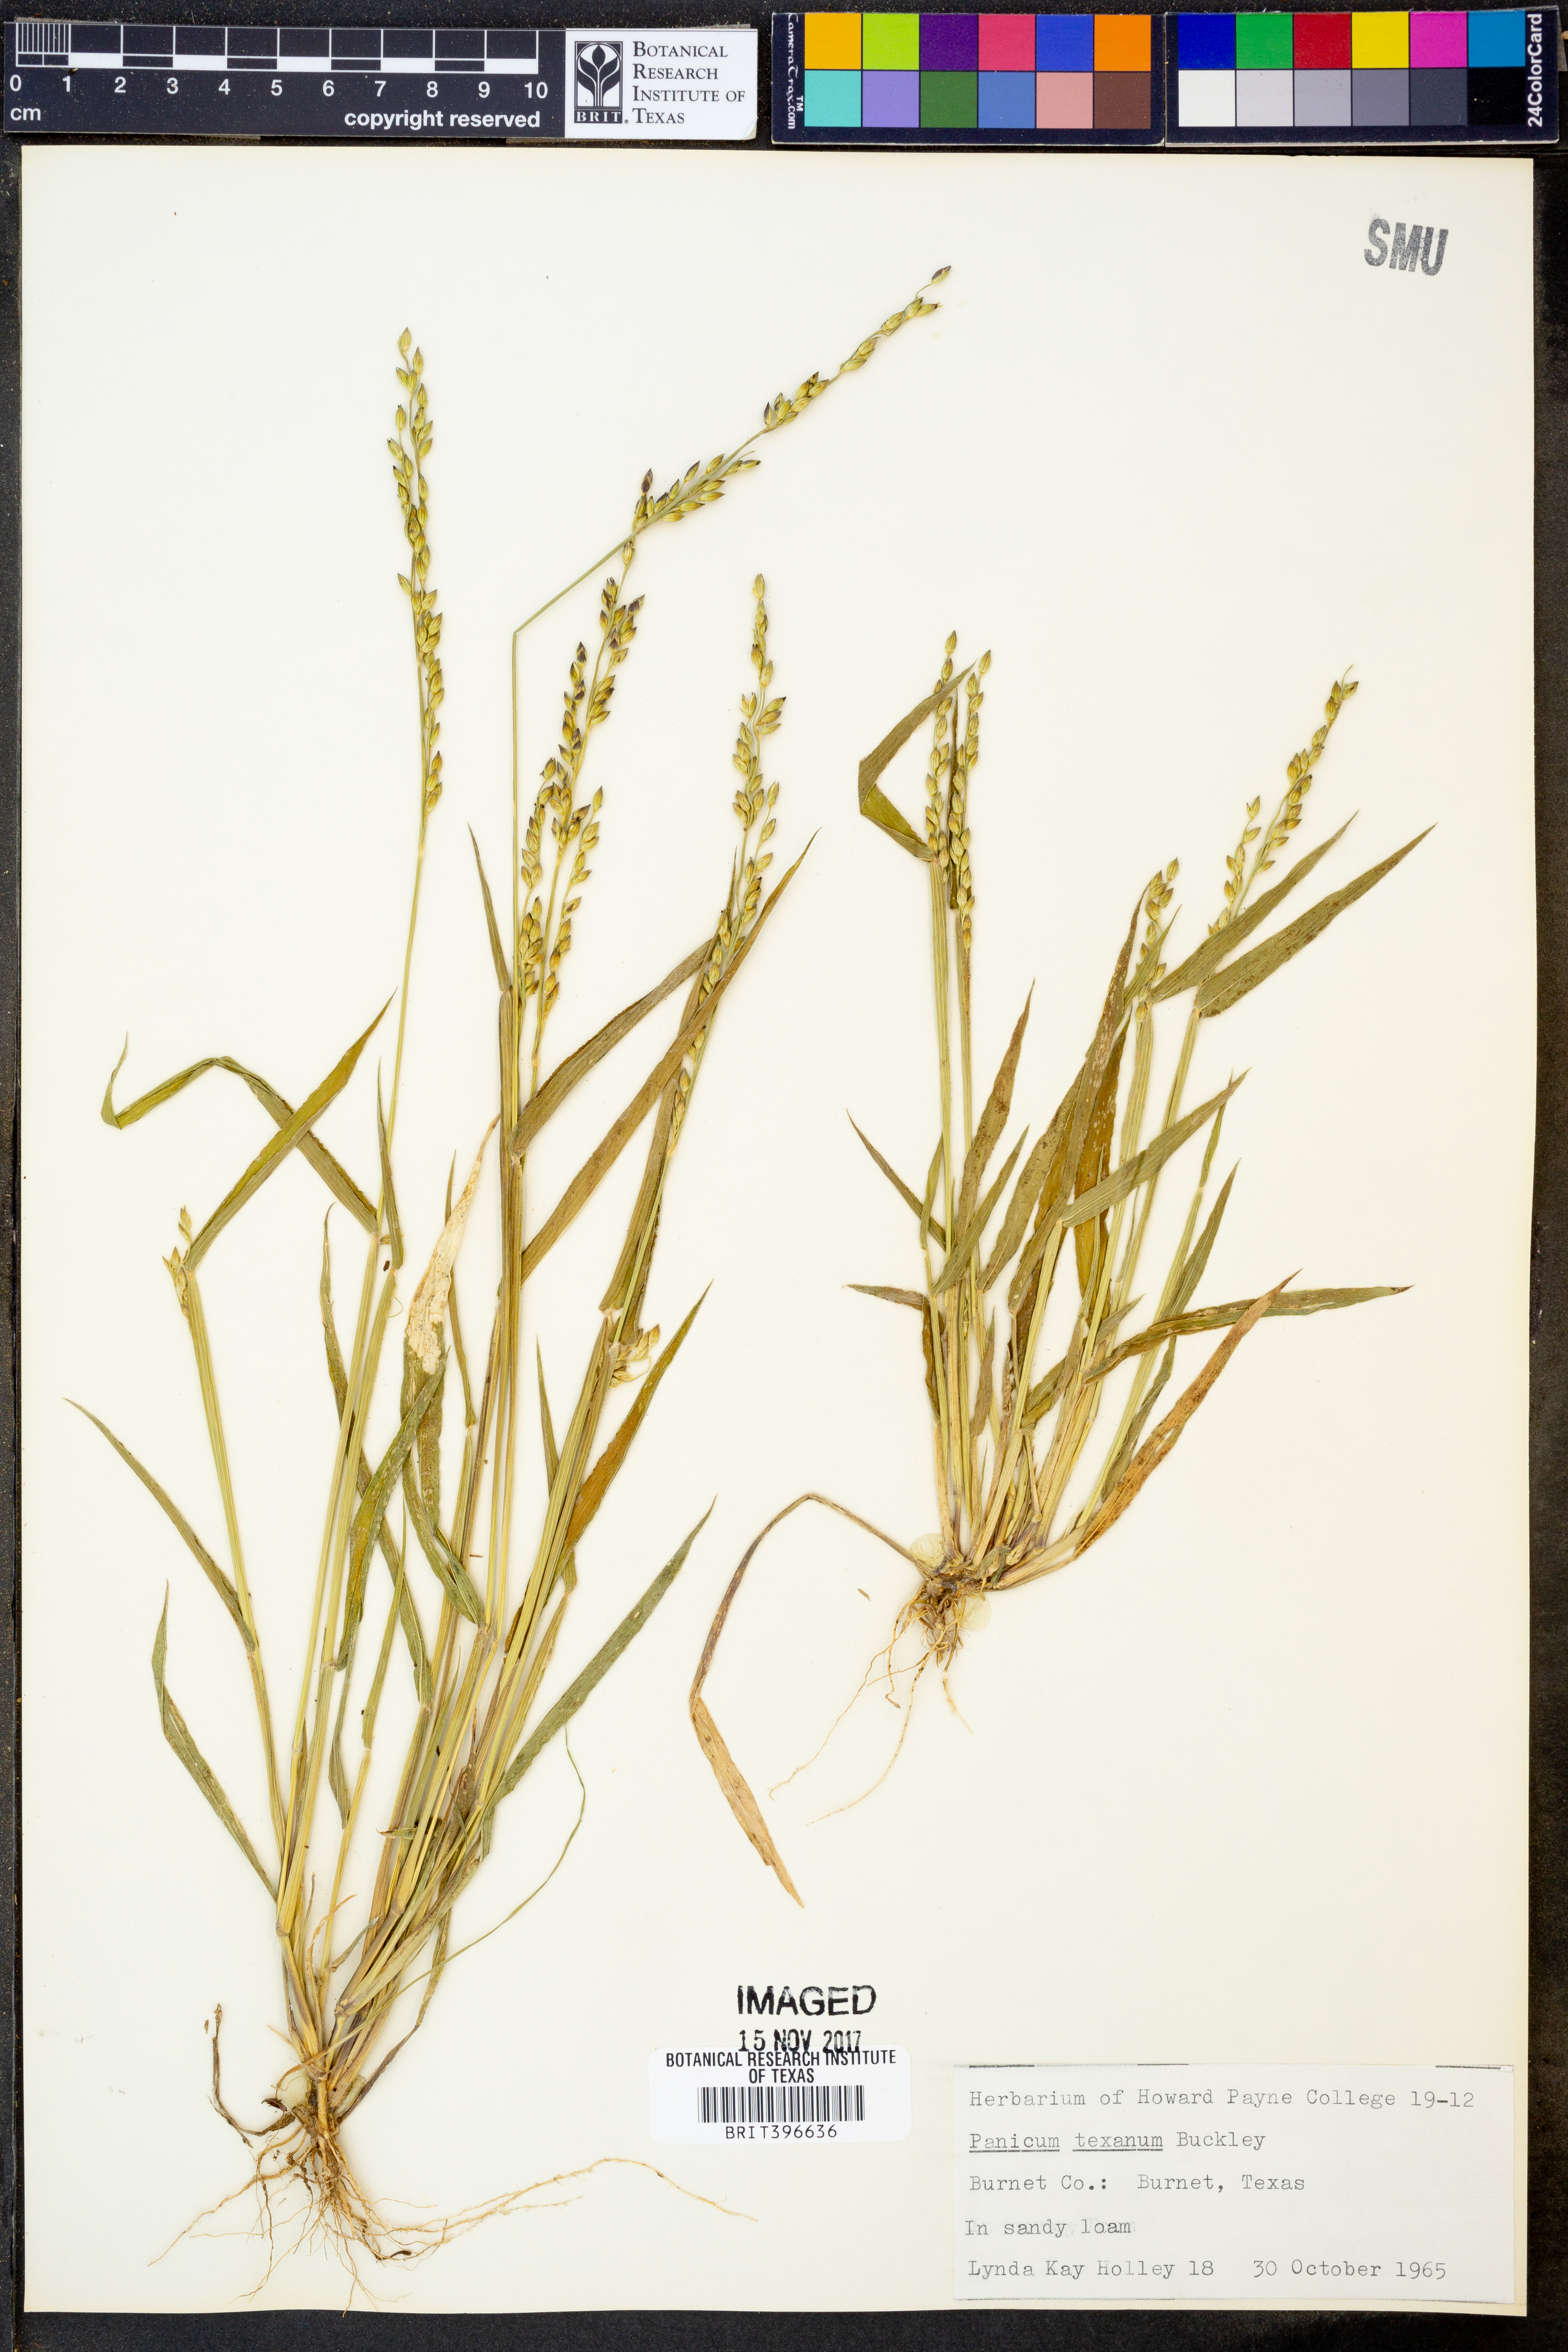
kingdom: Plantae
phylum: Tracheophyta
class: Liliopsida
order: Poales
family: Poaceae
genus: Urochloa
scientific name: Urochloa texana
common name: Texas millet
